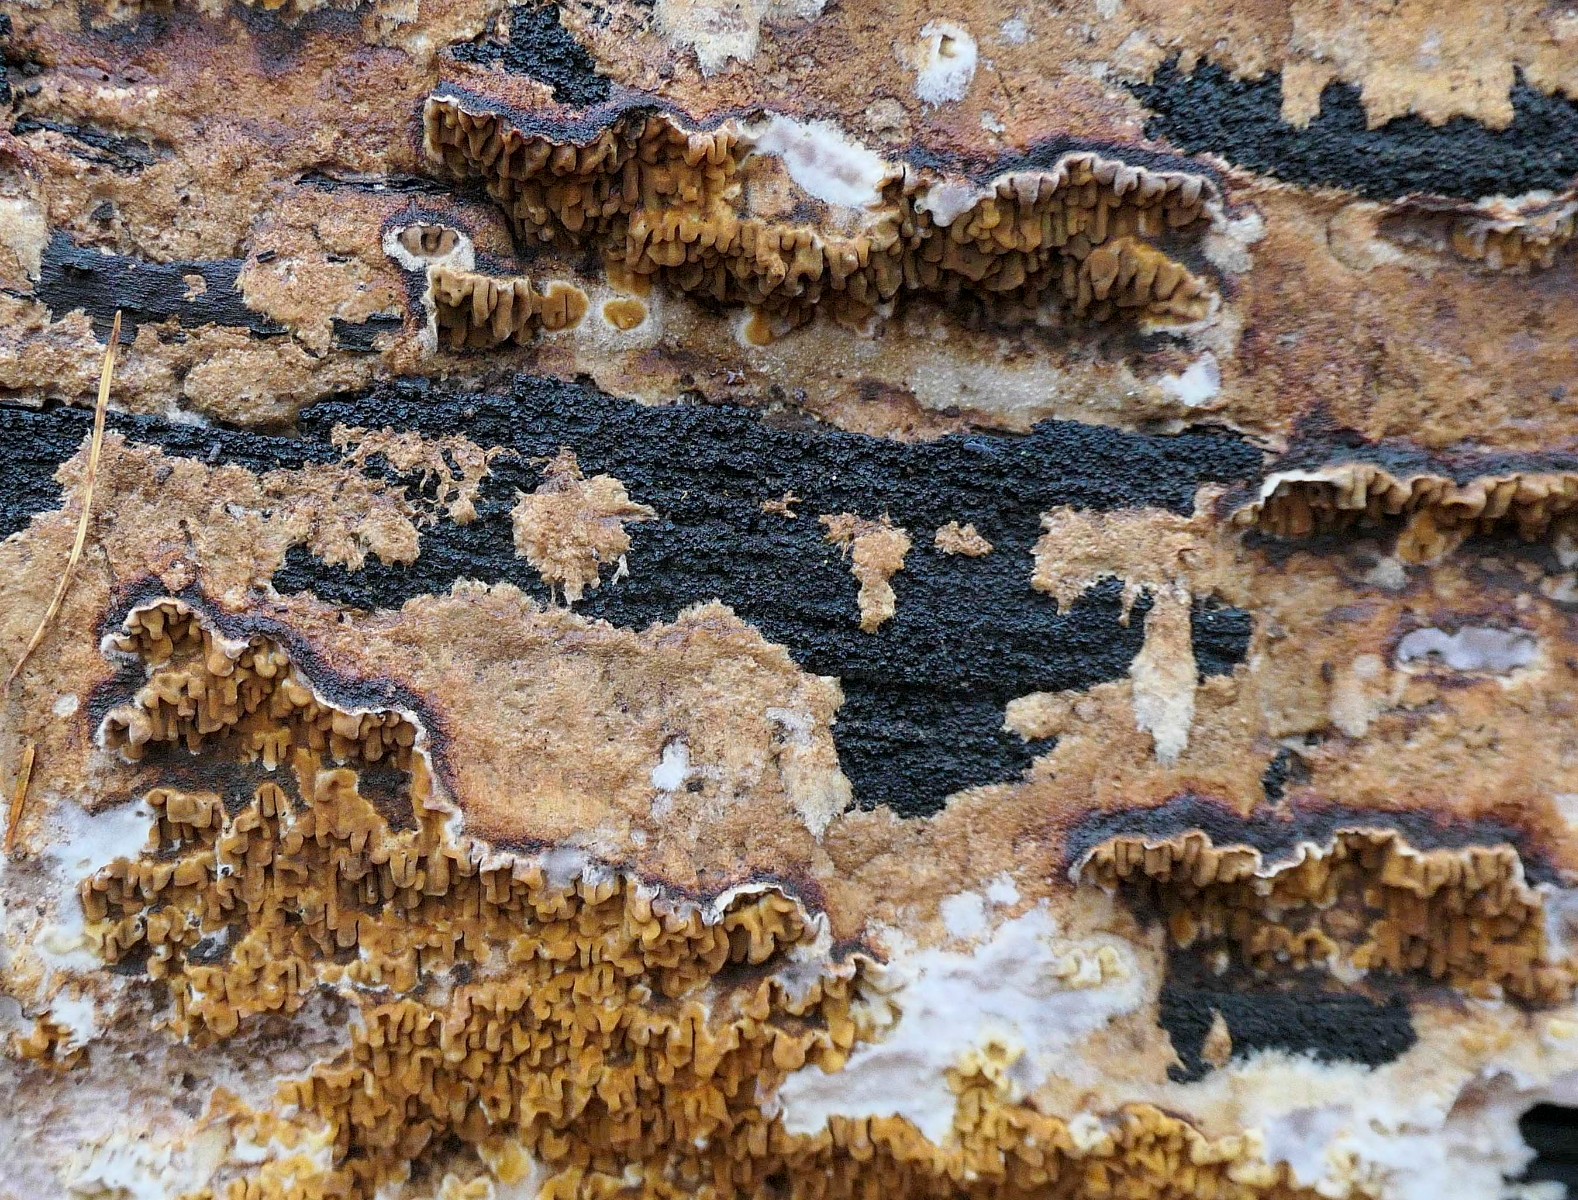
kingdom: Fungi
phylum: Basidiomycota
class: Agaricomycetes
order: Boletales
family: Serpulaceae
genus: Serpula
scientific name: Serpula himantioides
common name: tyndkødet hussvamp
